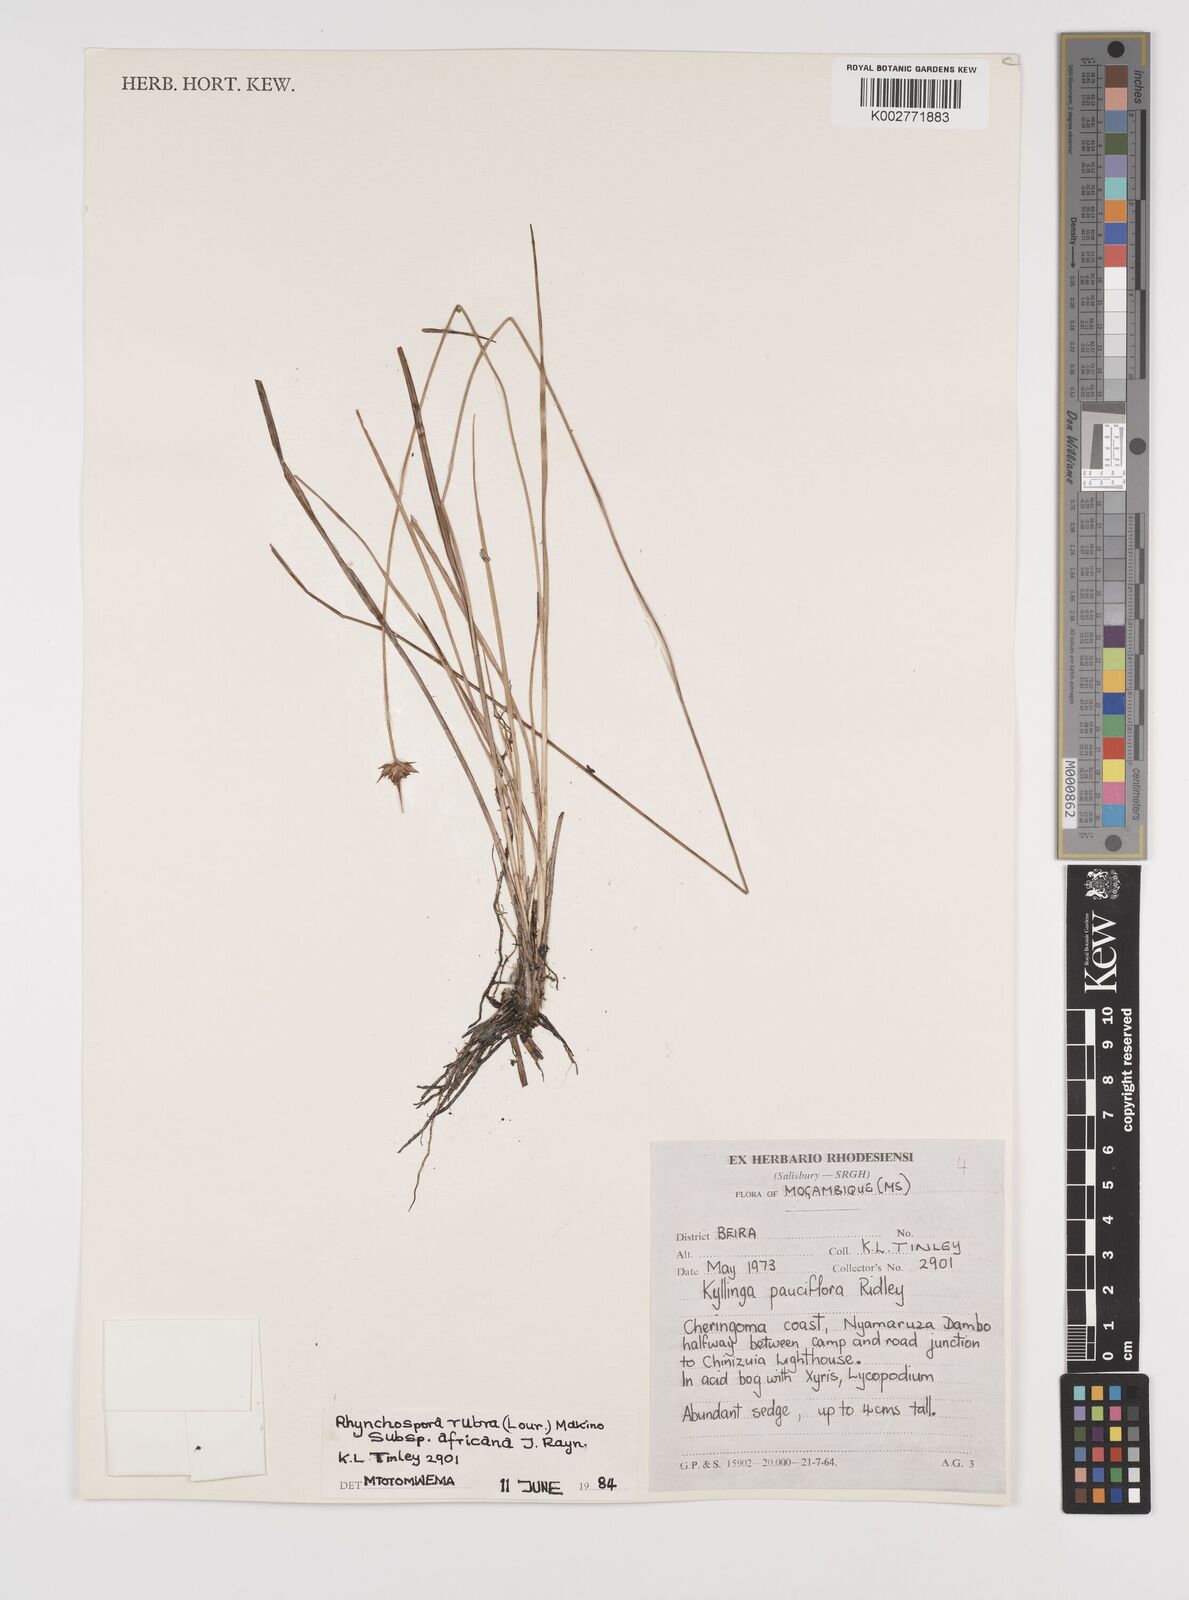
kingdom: Plantae
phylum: Tracheophyta
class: Liliopsida
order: Poales
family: Cyperaceae
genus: Rhynchospora
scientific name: Rhynchospora rubra
